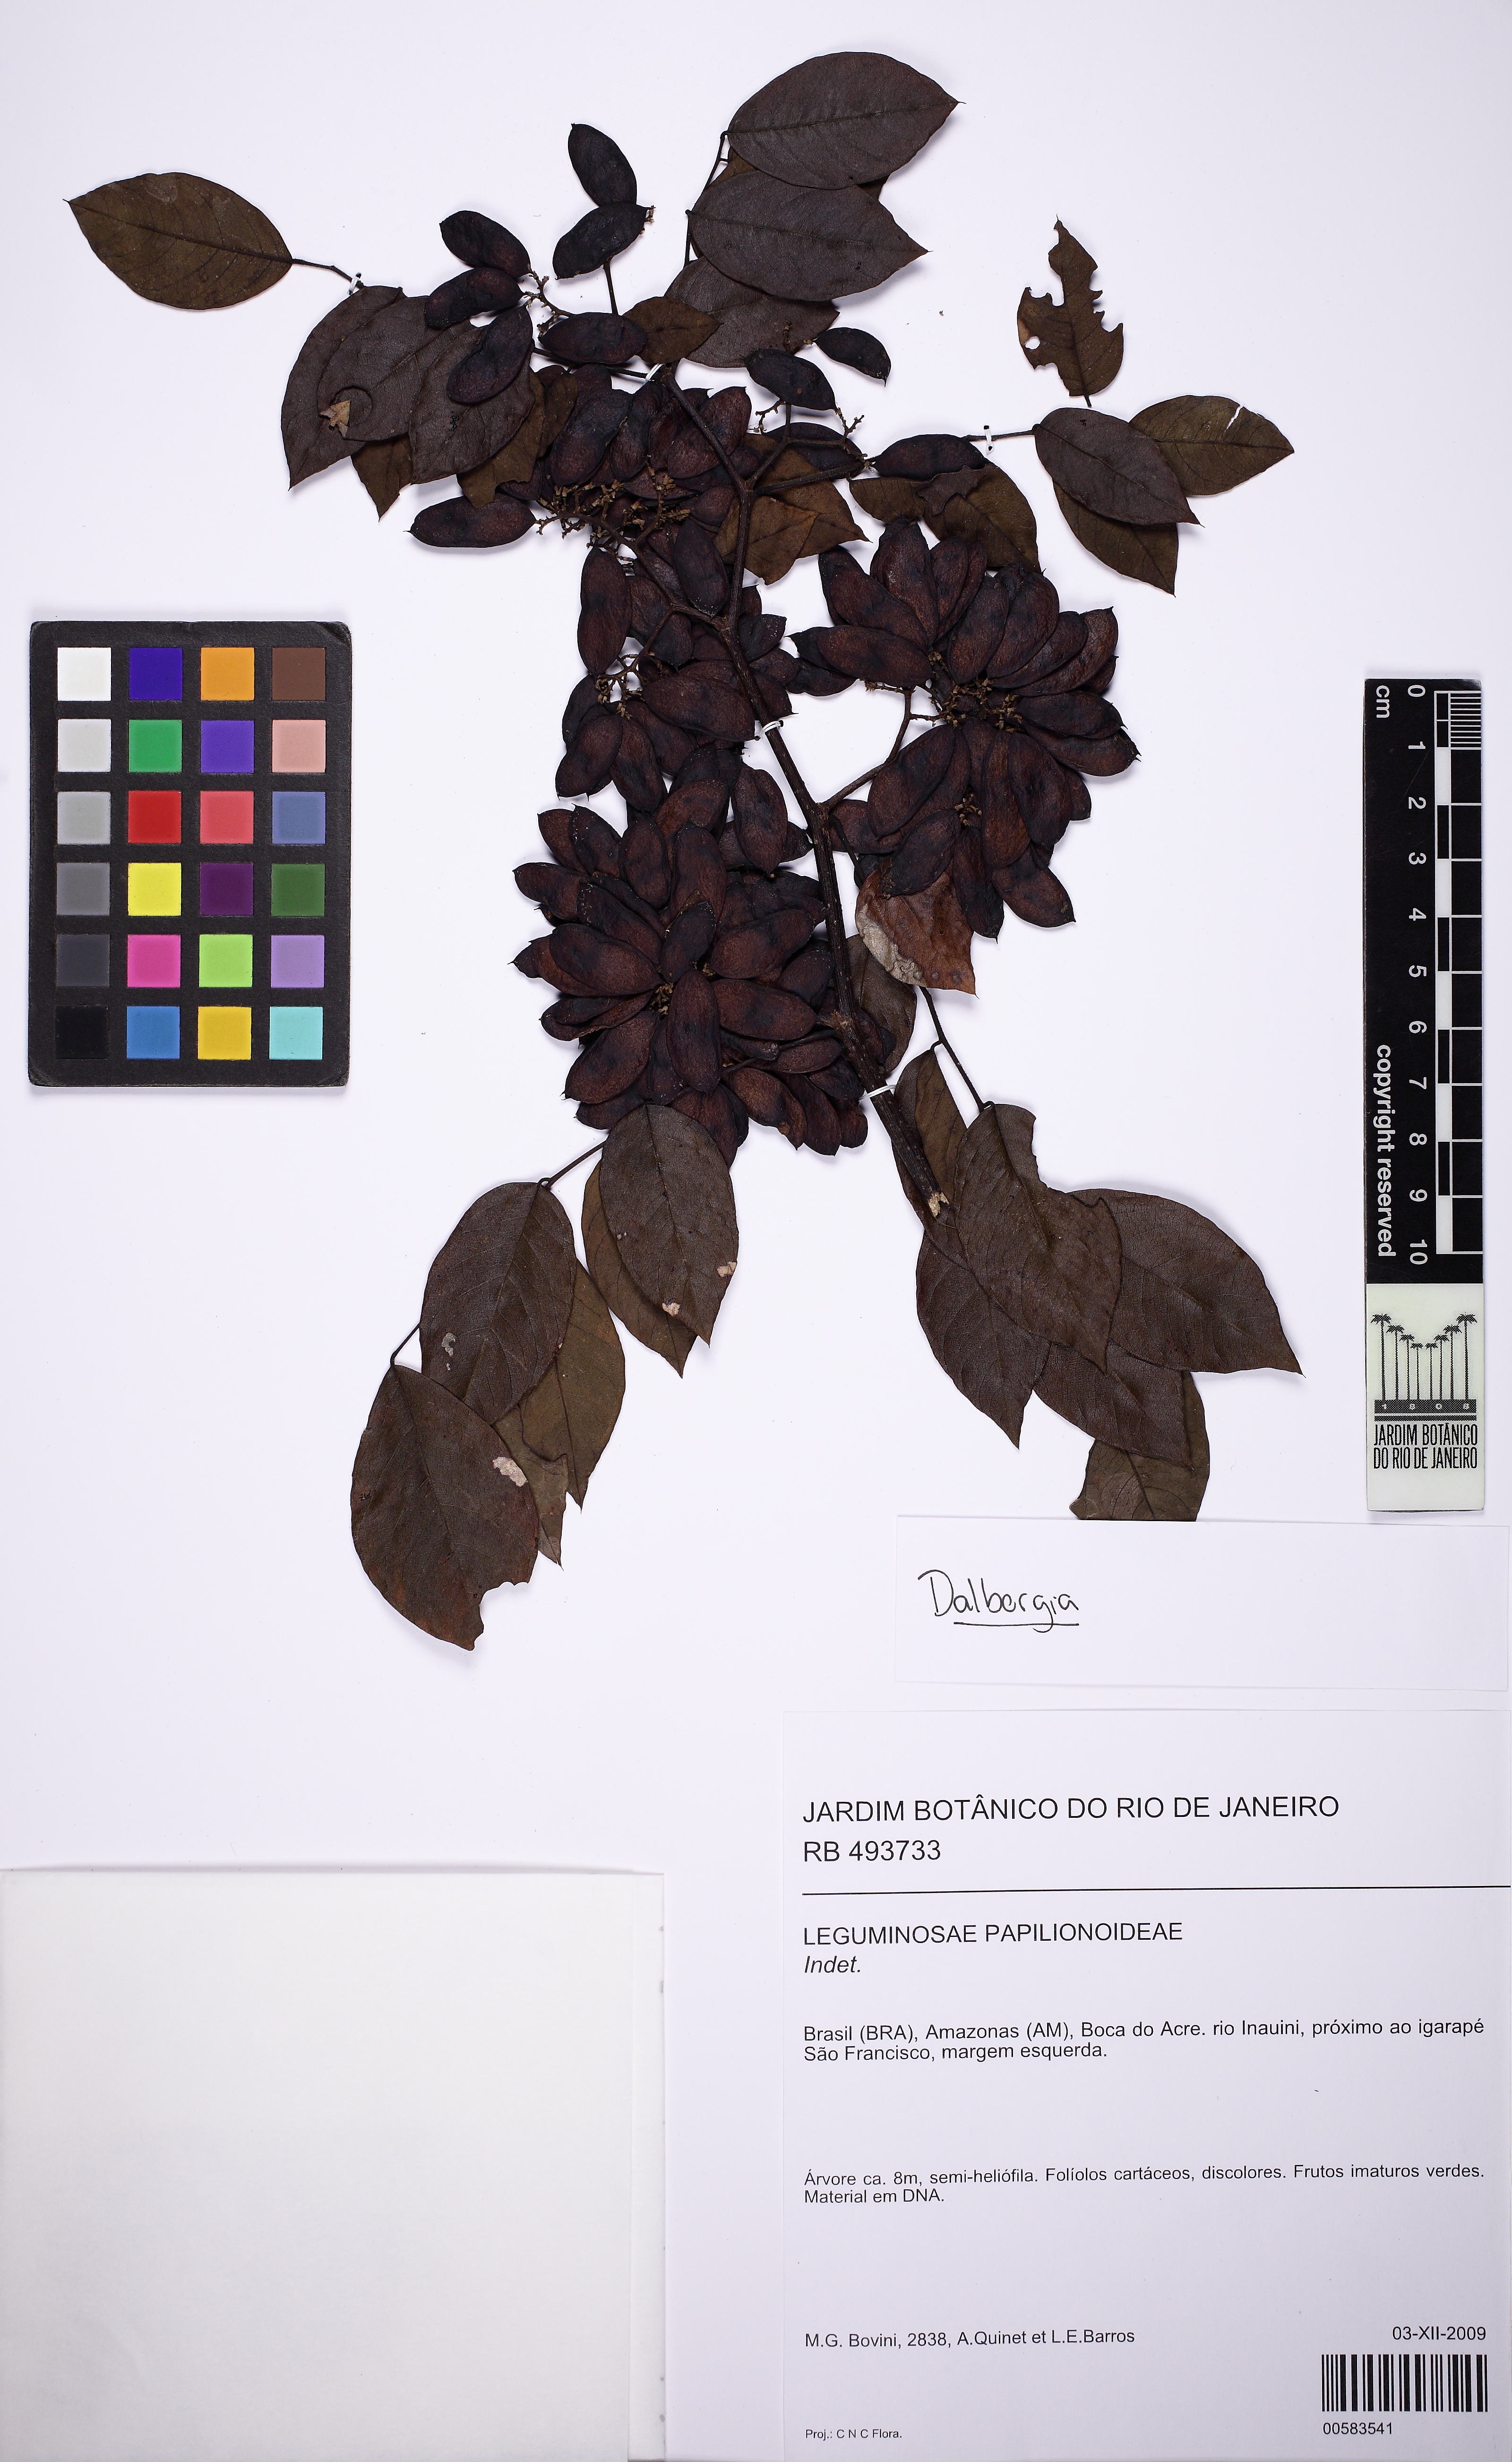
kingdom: Plantae
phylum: Tracheophyta
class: Magnoliopsida
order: Fabales
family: Fabaceae
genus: Dalbergia
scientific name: Dalbergia
